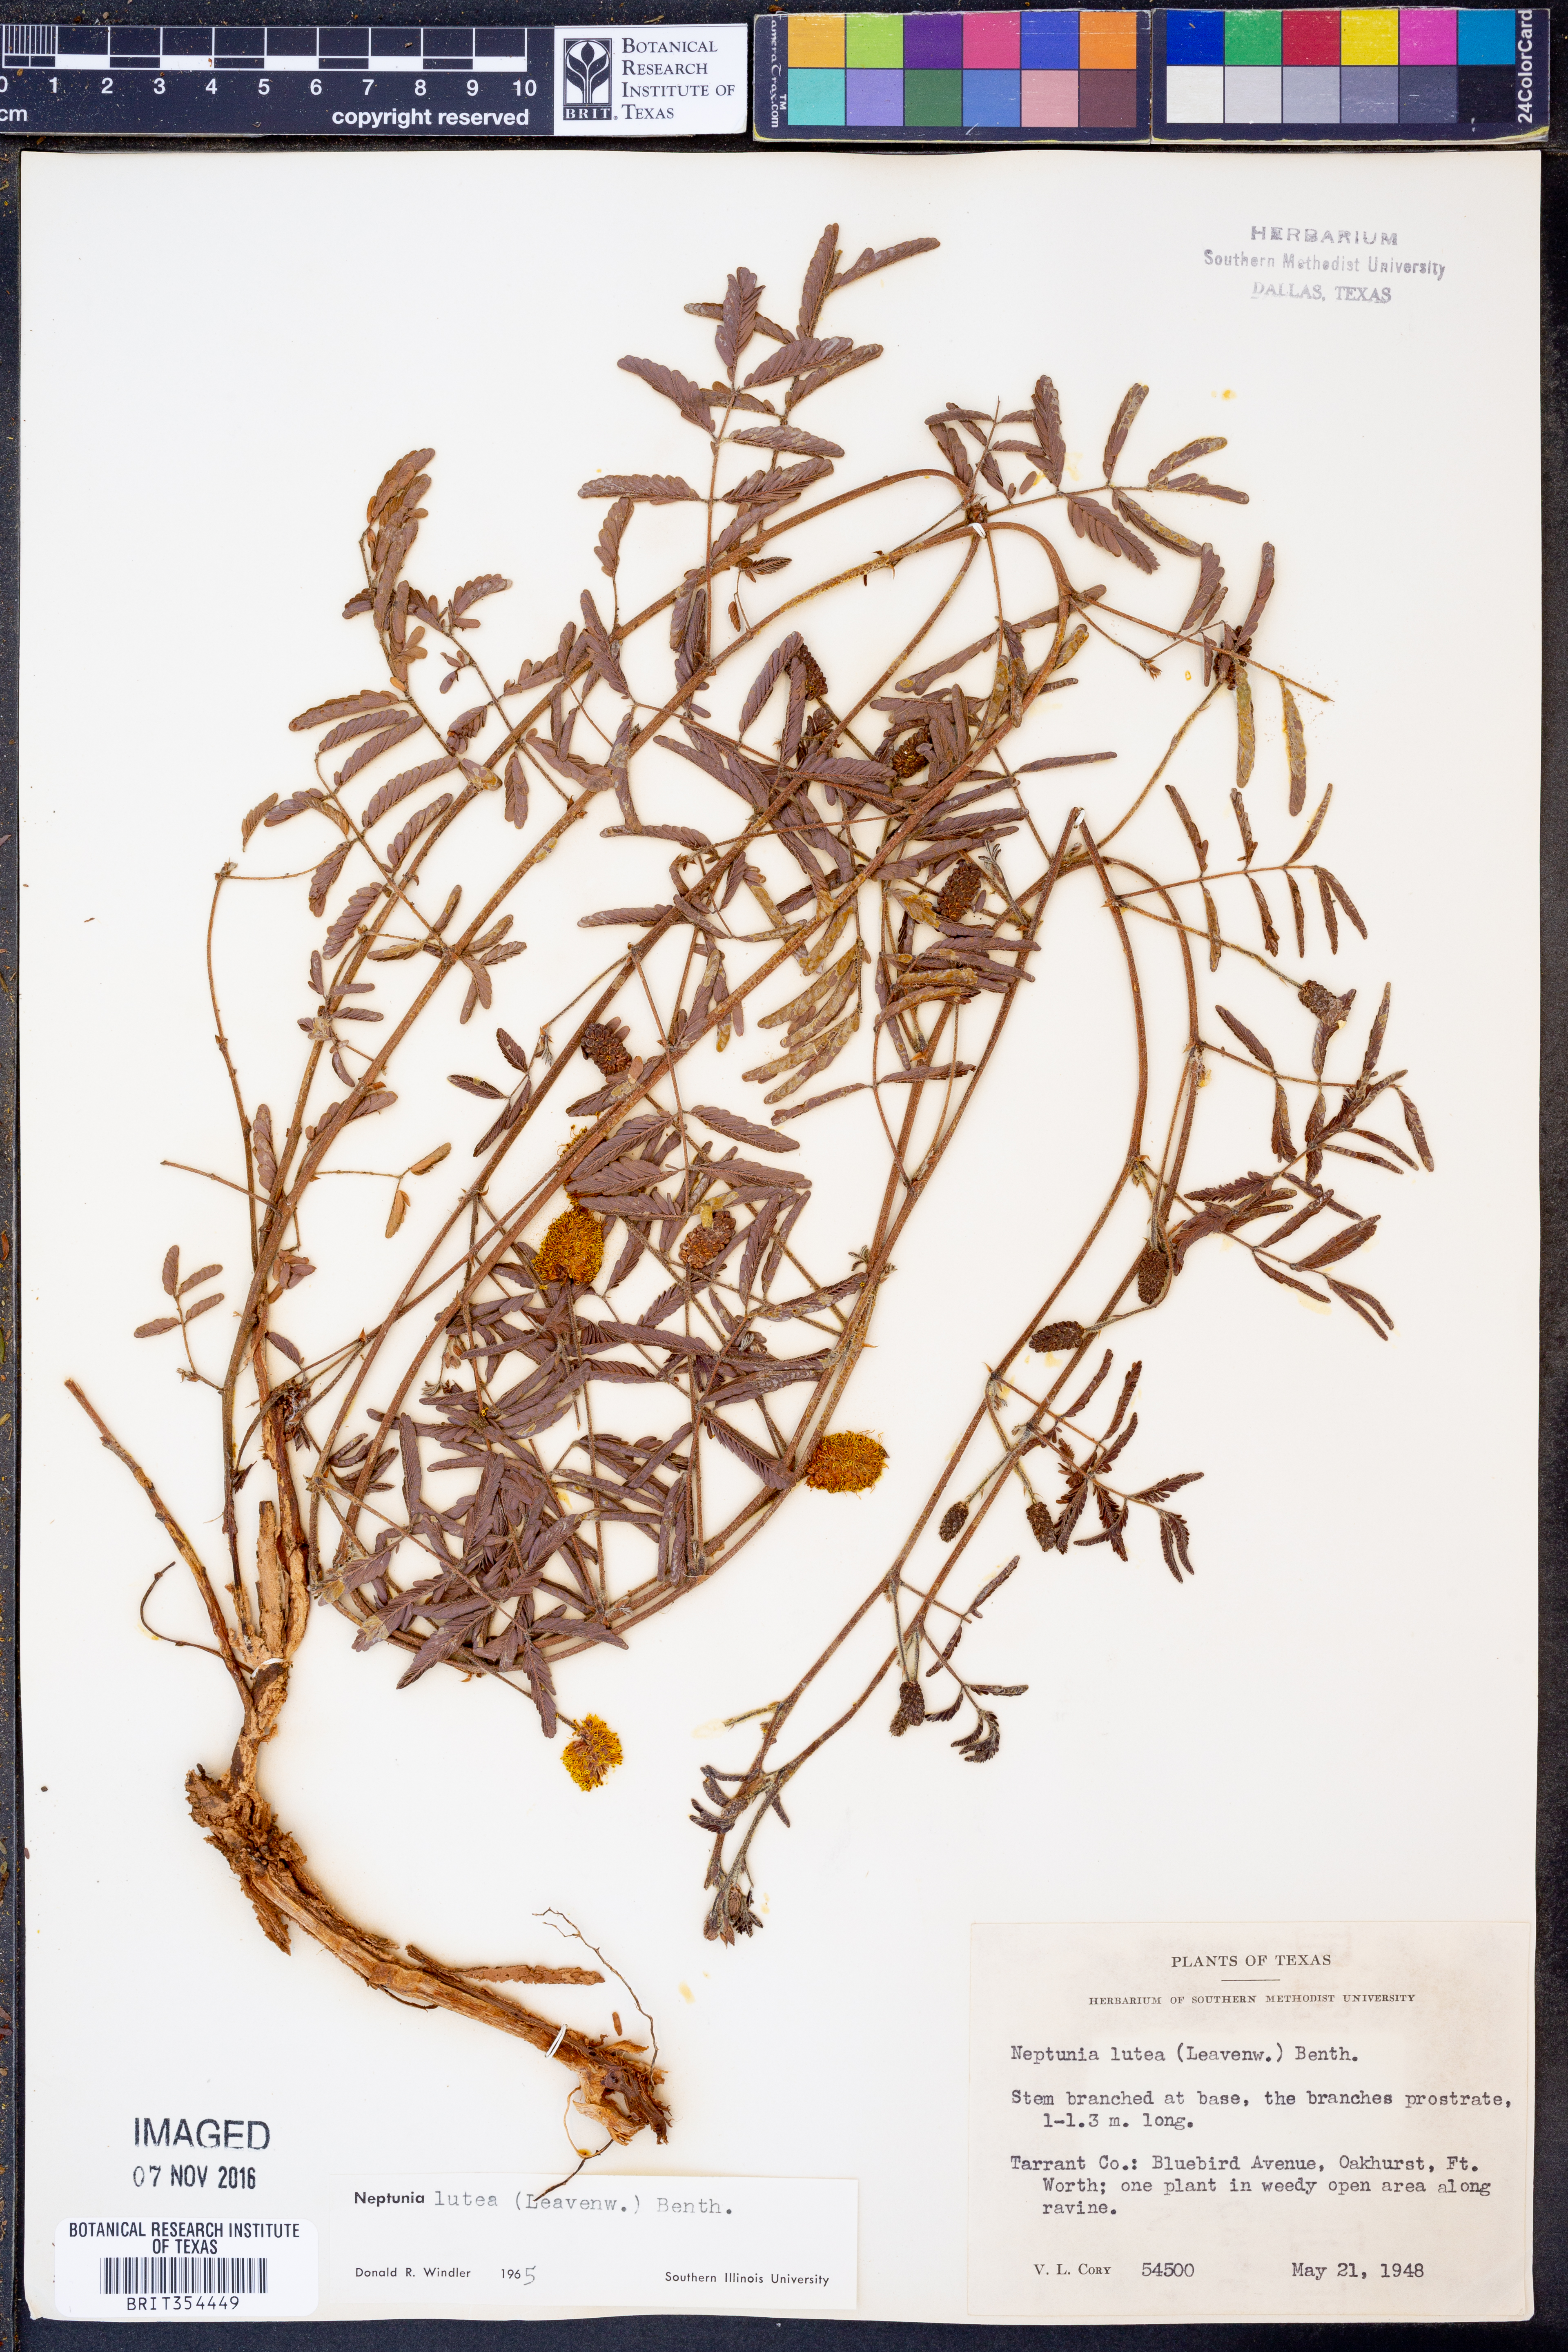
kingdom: Plantae
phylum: Tracheophyta
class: Magnoliopsida
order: Fabales
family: Fabaceae
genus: Neptunia
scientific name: Neptunia lutea
